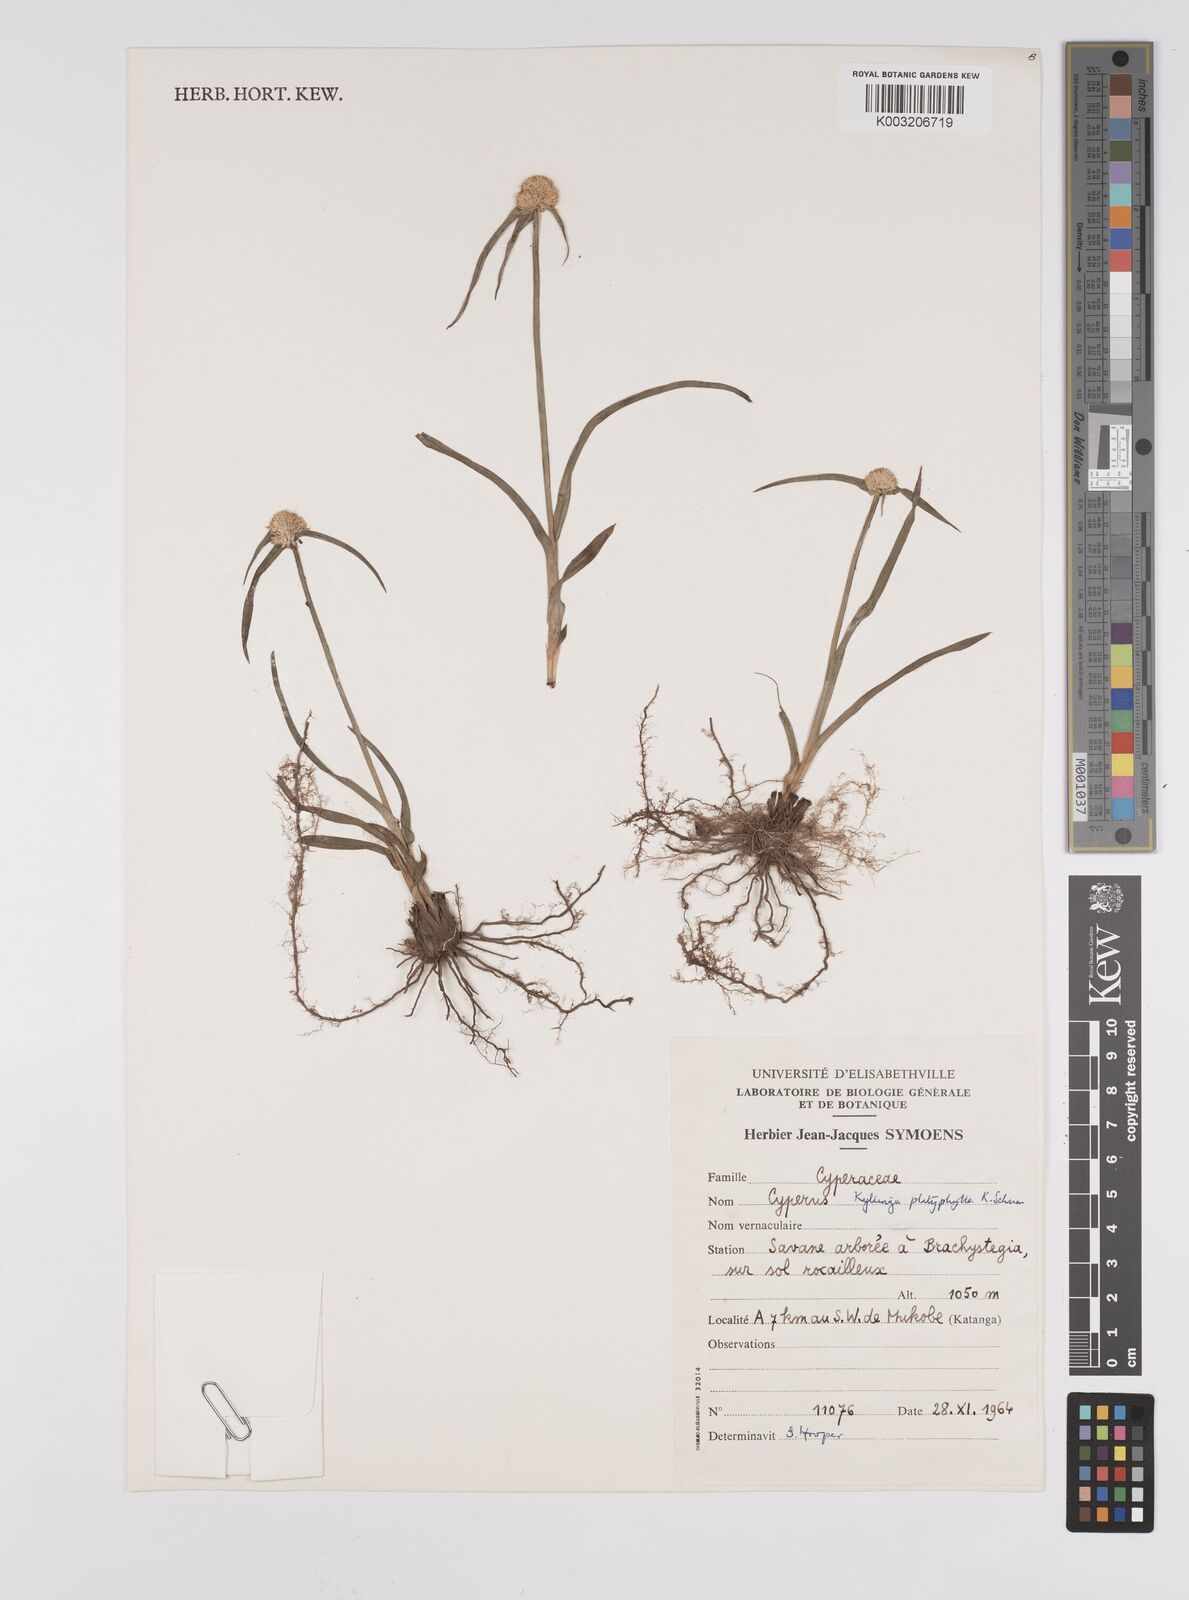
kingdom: Plantae
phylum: Tracheophyta
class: Liliopsida
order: Poales
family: Cyperaceae
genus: Cyperus
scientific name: Cyperus
